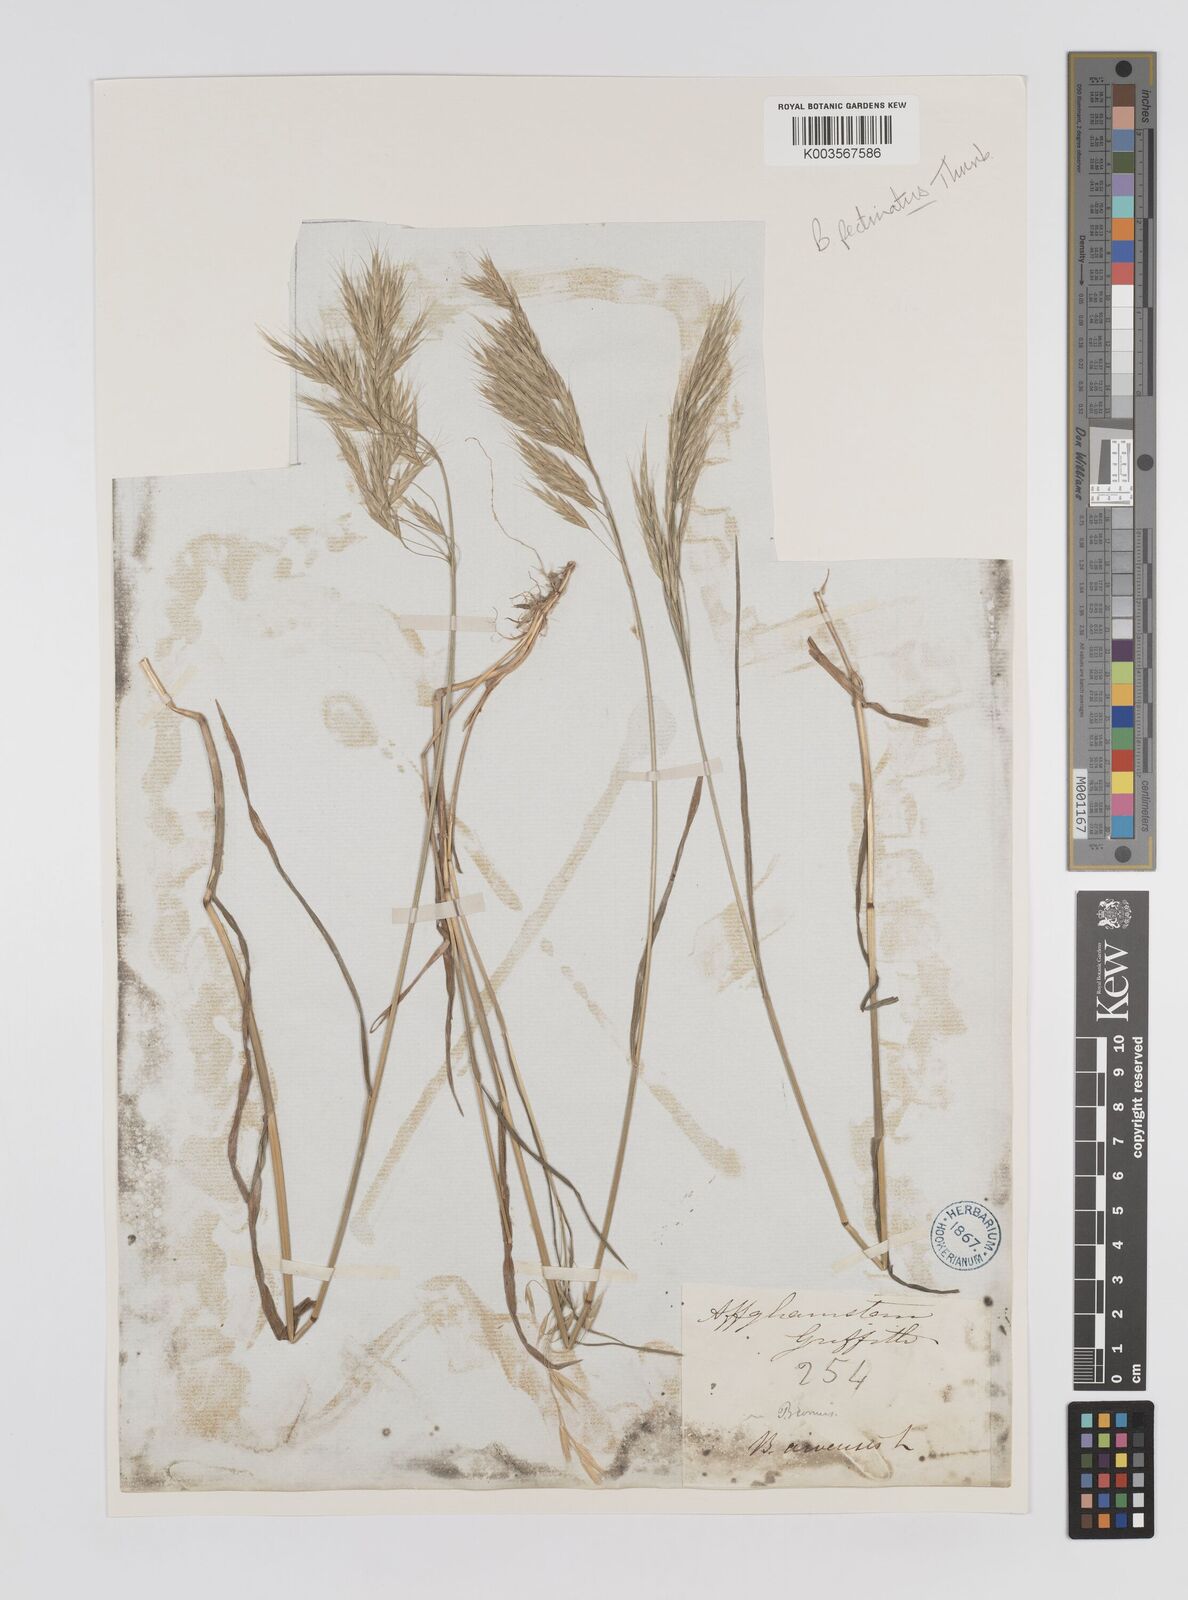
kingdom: Plantae
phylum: Tracheophyta
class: Liliopsida
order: Poales
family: Poaceae
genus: Bromus
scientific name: Bromus pectinatus
